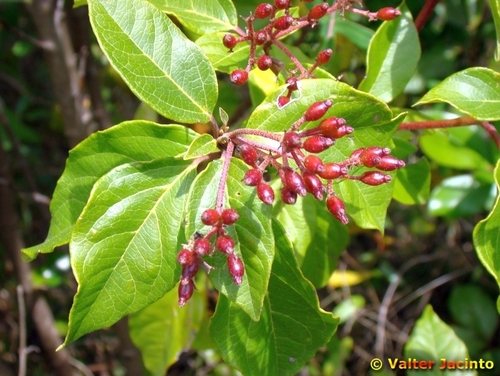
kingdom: Plantae
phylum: Tracheophyta
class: Magnoliopsida
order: Dipsacales
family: Viburnaceae
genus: Viburnum
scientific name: Viburnum tinus
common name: Laurustinus
